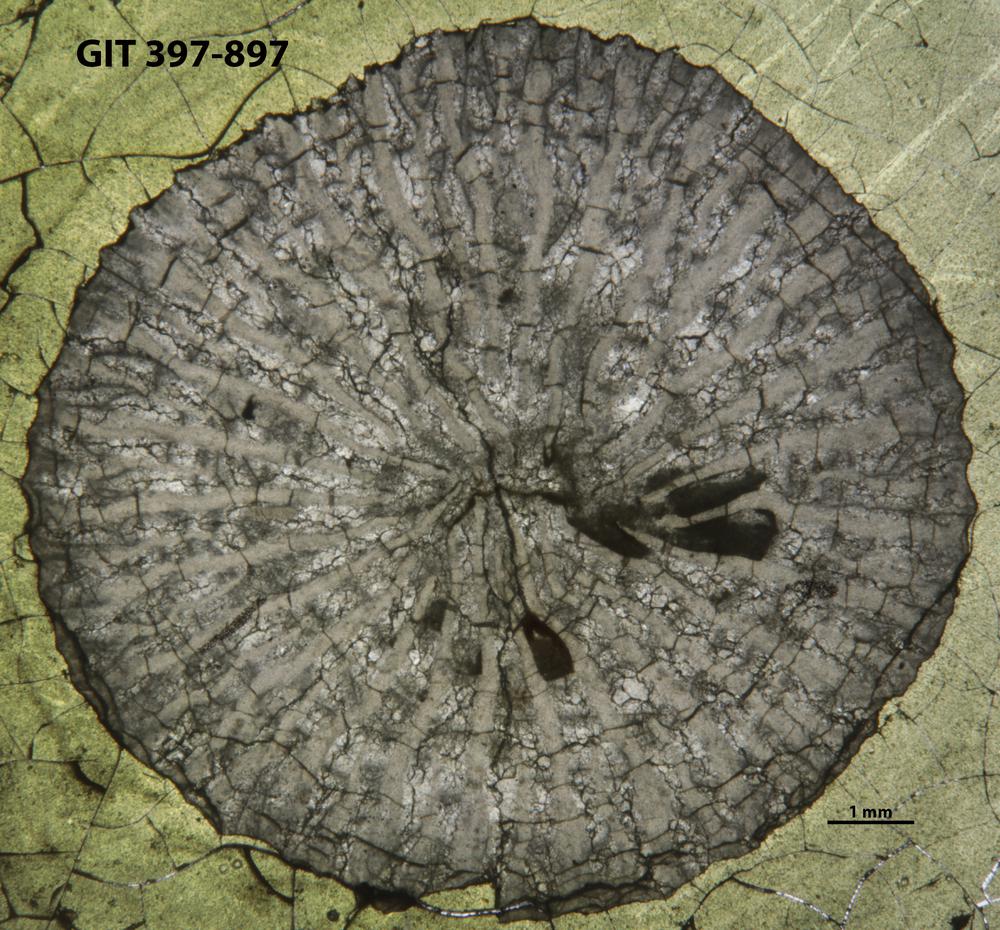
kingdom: Animalia
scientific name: Animalia
